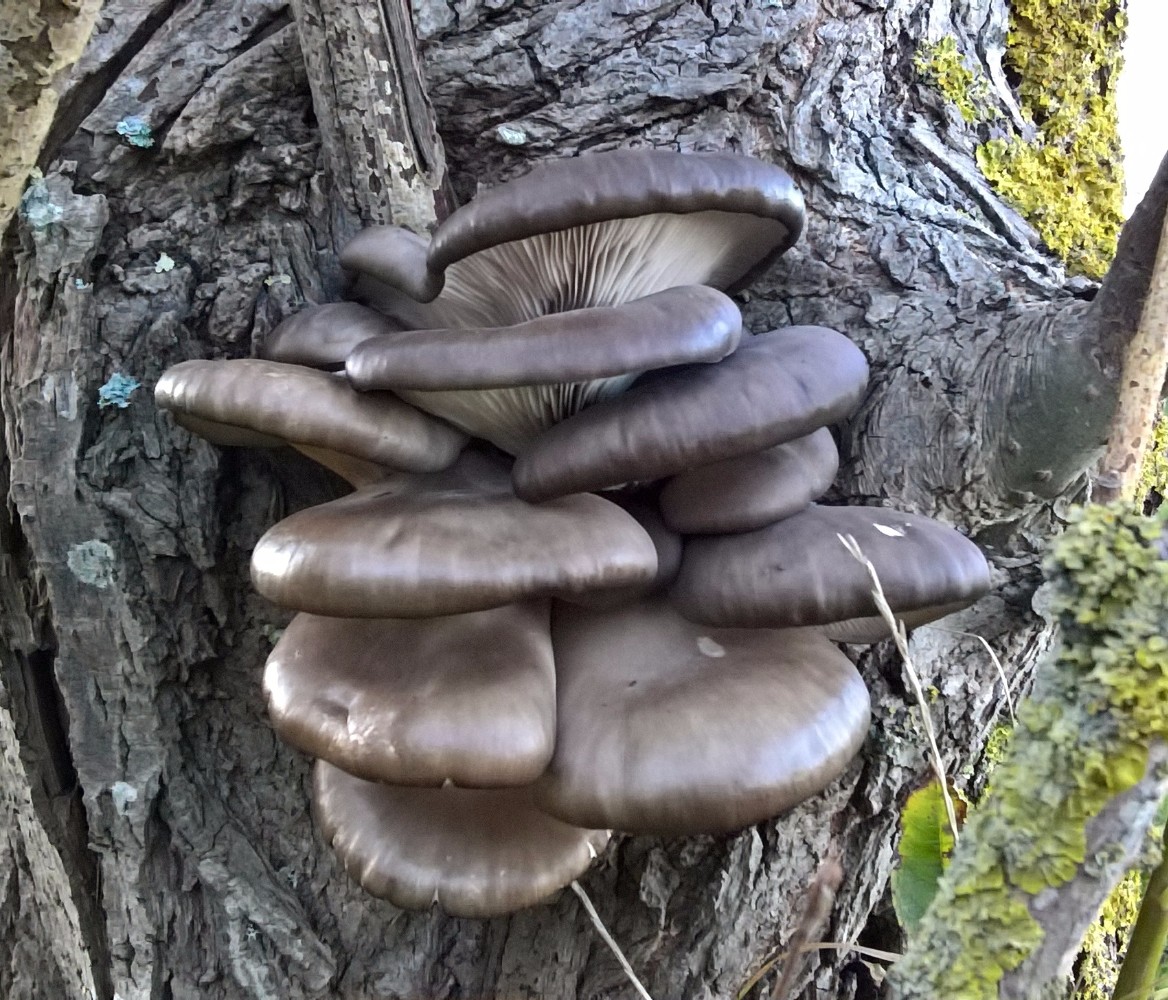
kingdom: Fungi
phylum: Basidiomycota
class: Agaricomycetes
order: Agaricales
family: Pleurotaceae
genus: Pleurotus
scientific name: Pleurotus ostreatus
